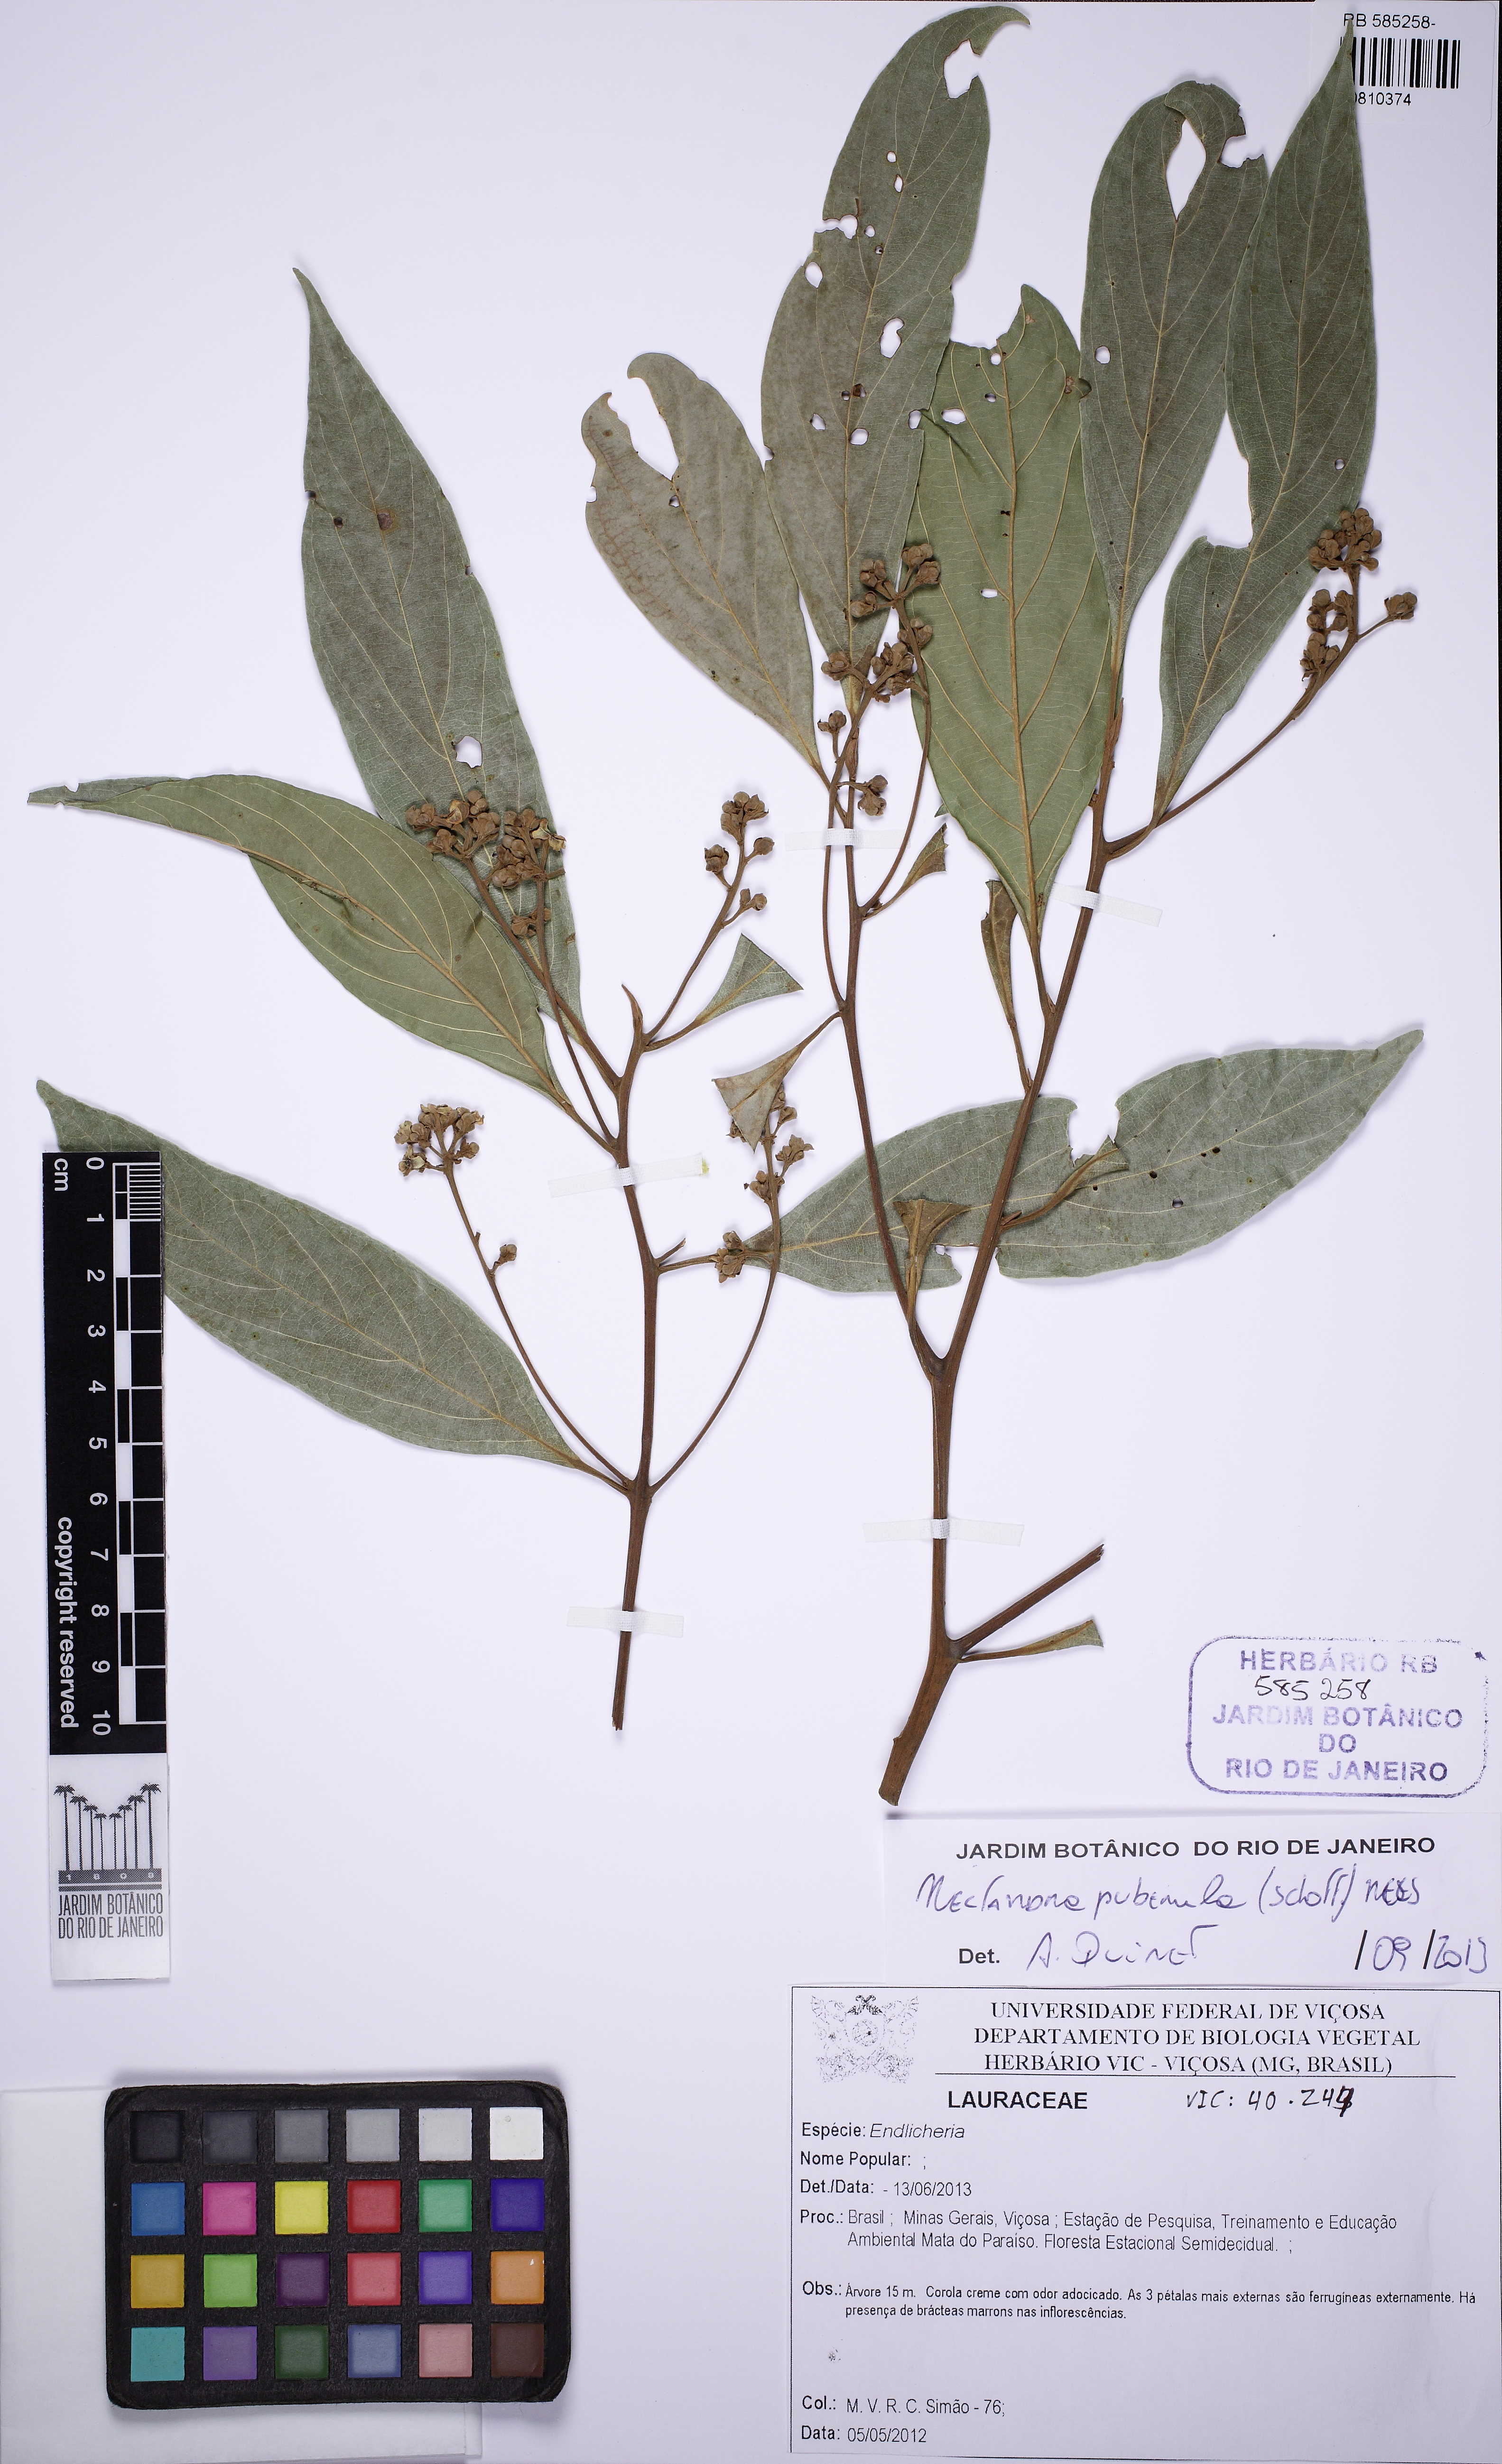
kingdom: Plantae
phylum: Tracheophyta
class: Magnoliopsida
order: Laurales
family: Lauraceae
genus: Nectandra
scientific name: Nectandra puberula
